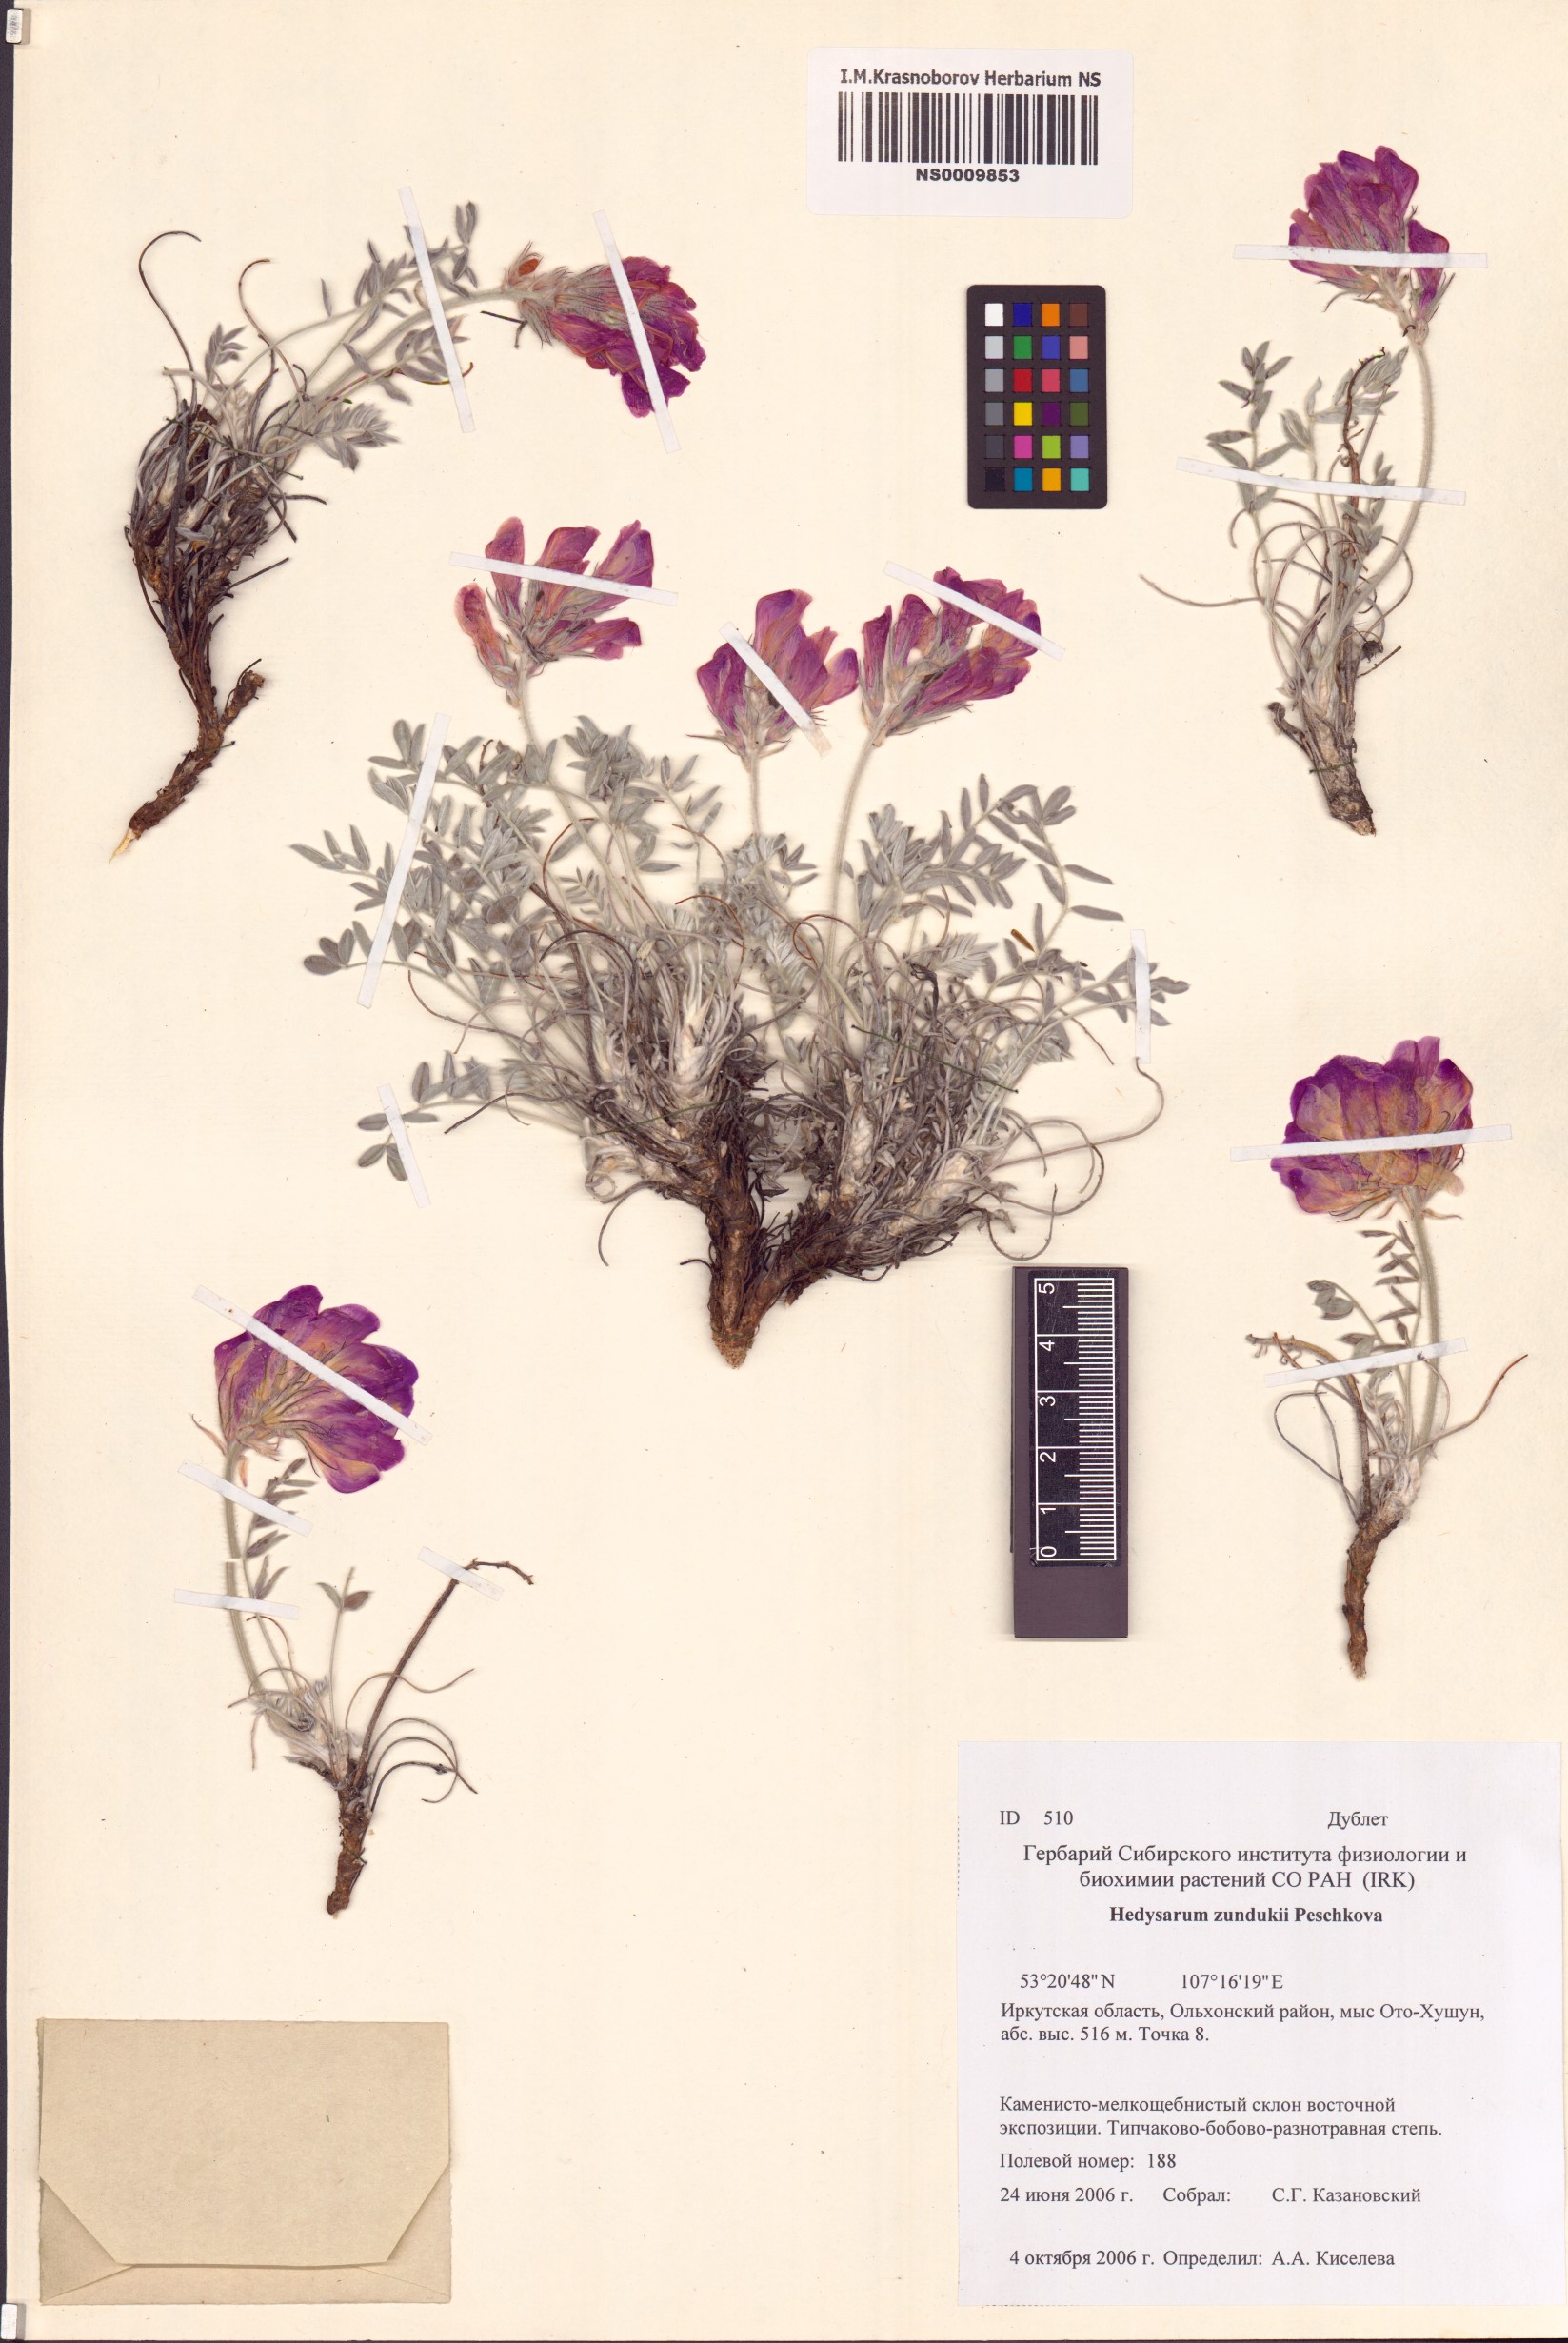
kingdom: Plantae
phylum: Tracheophyta
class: Magnoliopsida
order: Fabales
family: Fabaceae
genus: Hedysarum
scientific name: Hedysarum zundukii
